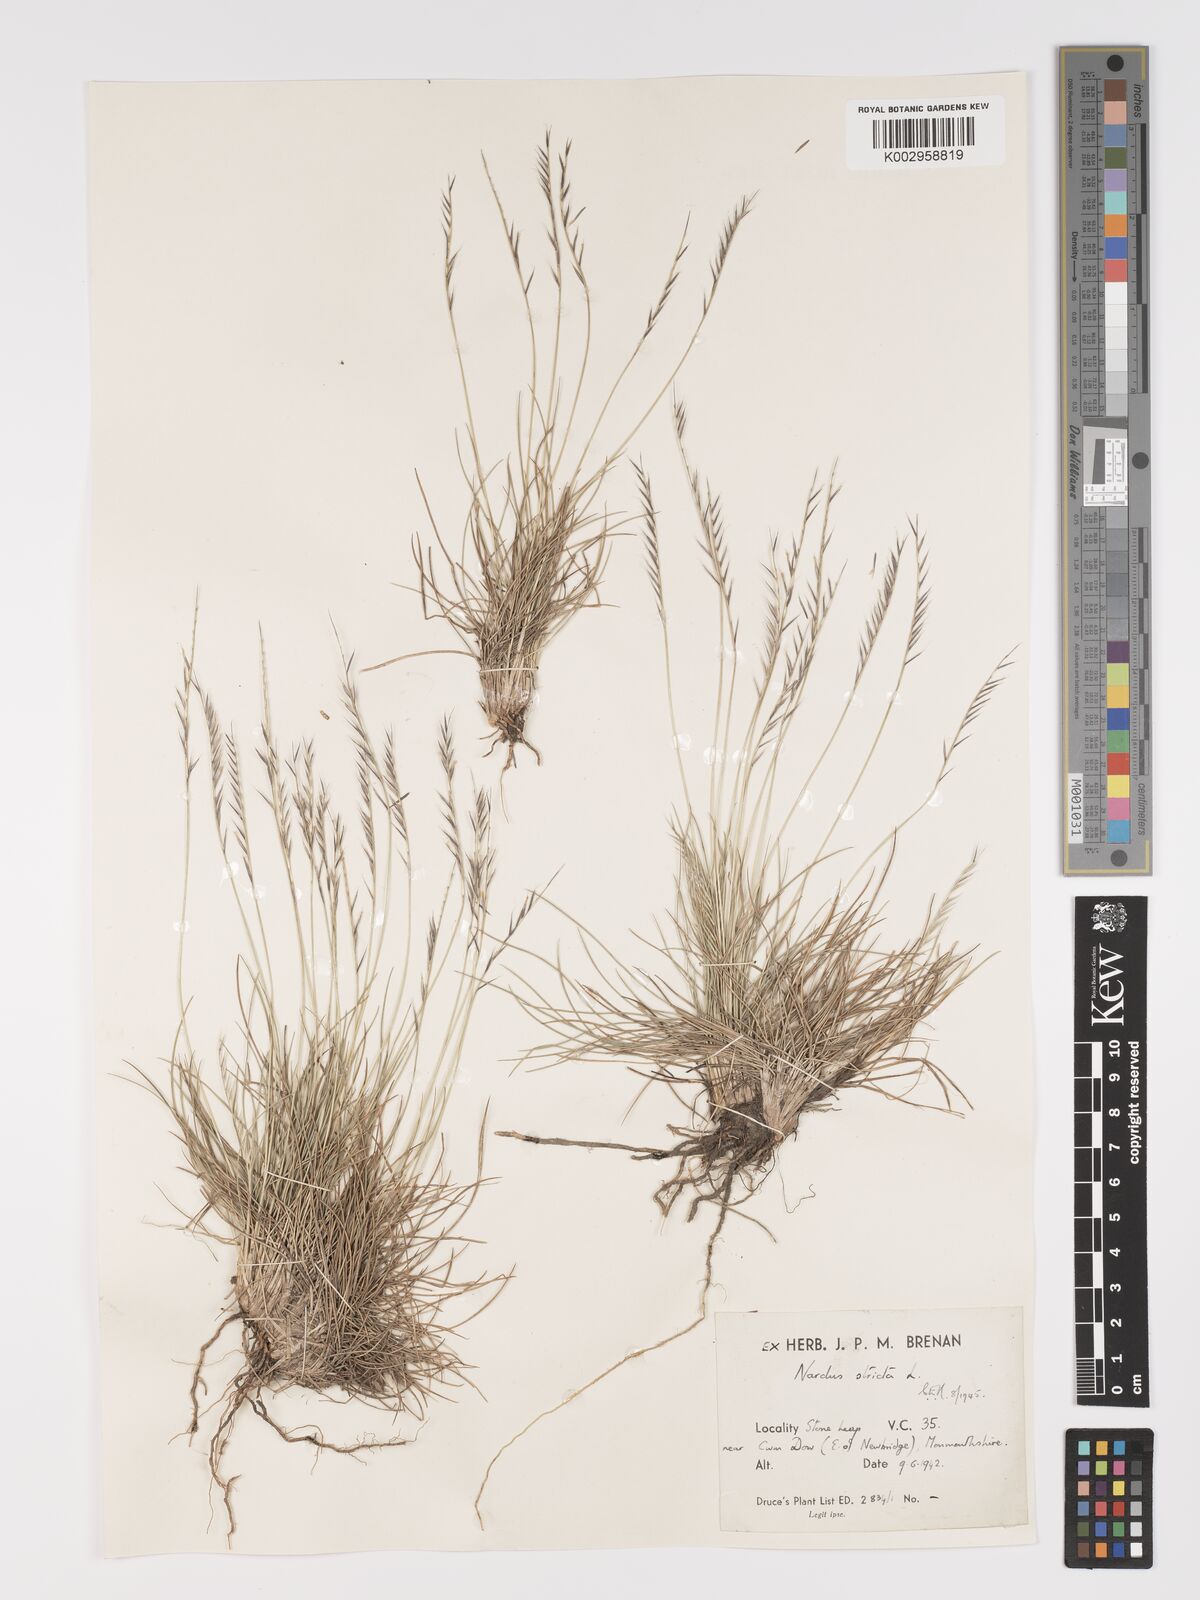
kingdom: Plantae
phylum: Tracheophyta
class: Liliopsida
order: Poales
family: Poaceae
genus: Nardus
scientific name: Nardus stricta
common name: Mat-grass
